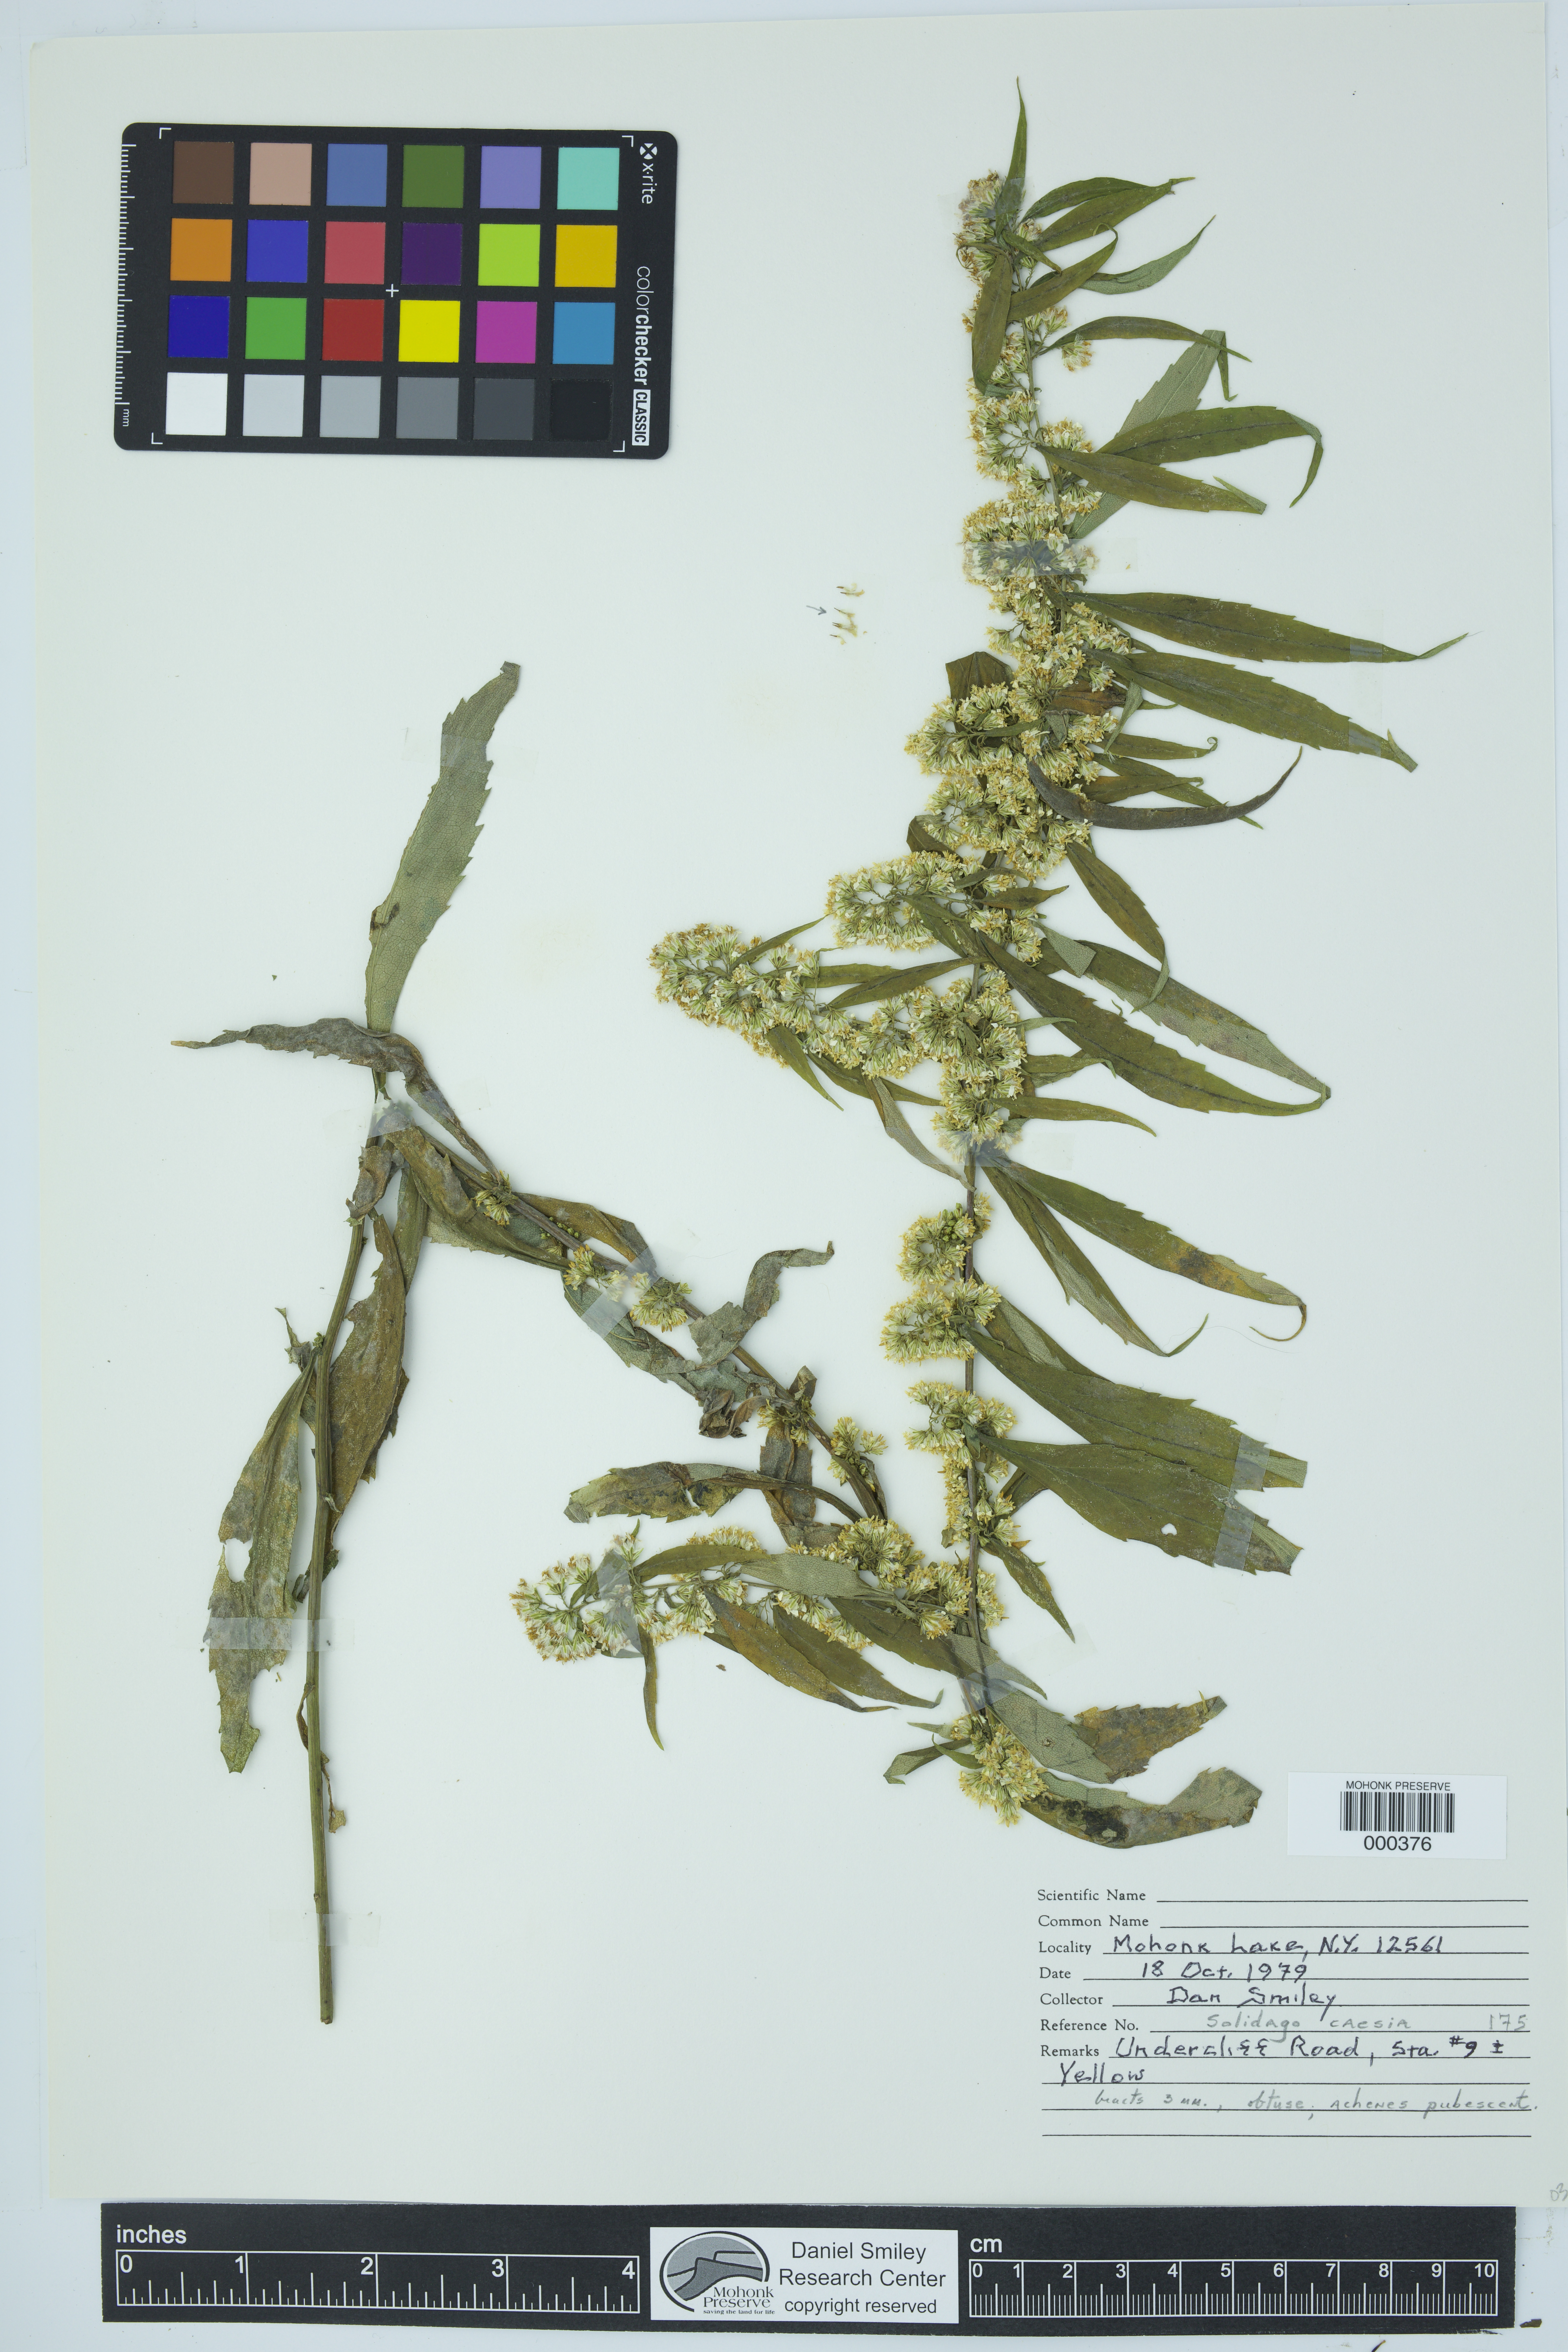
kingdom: Plantae
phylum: Tracheophyta
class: Magnoliopsida
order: Asterales
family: Asteraceae
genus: Solidago
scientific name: Solidago caesia
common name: Woodland goldenrod
